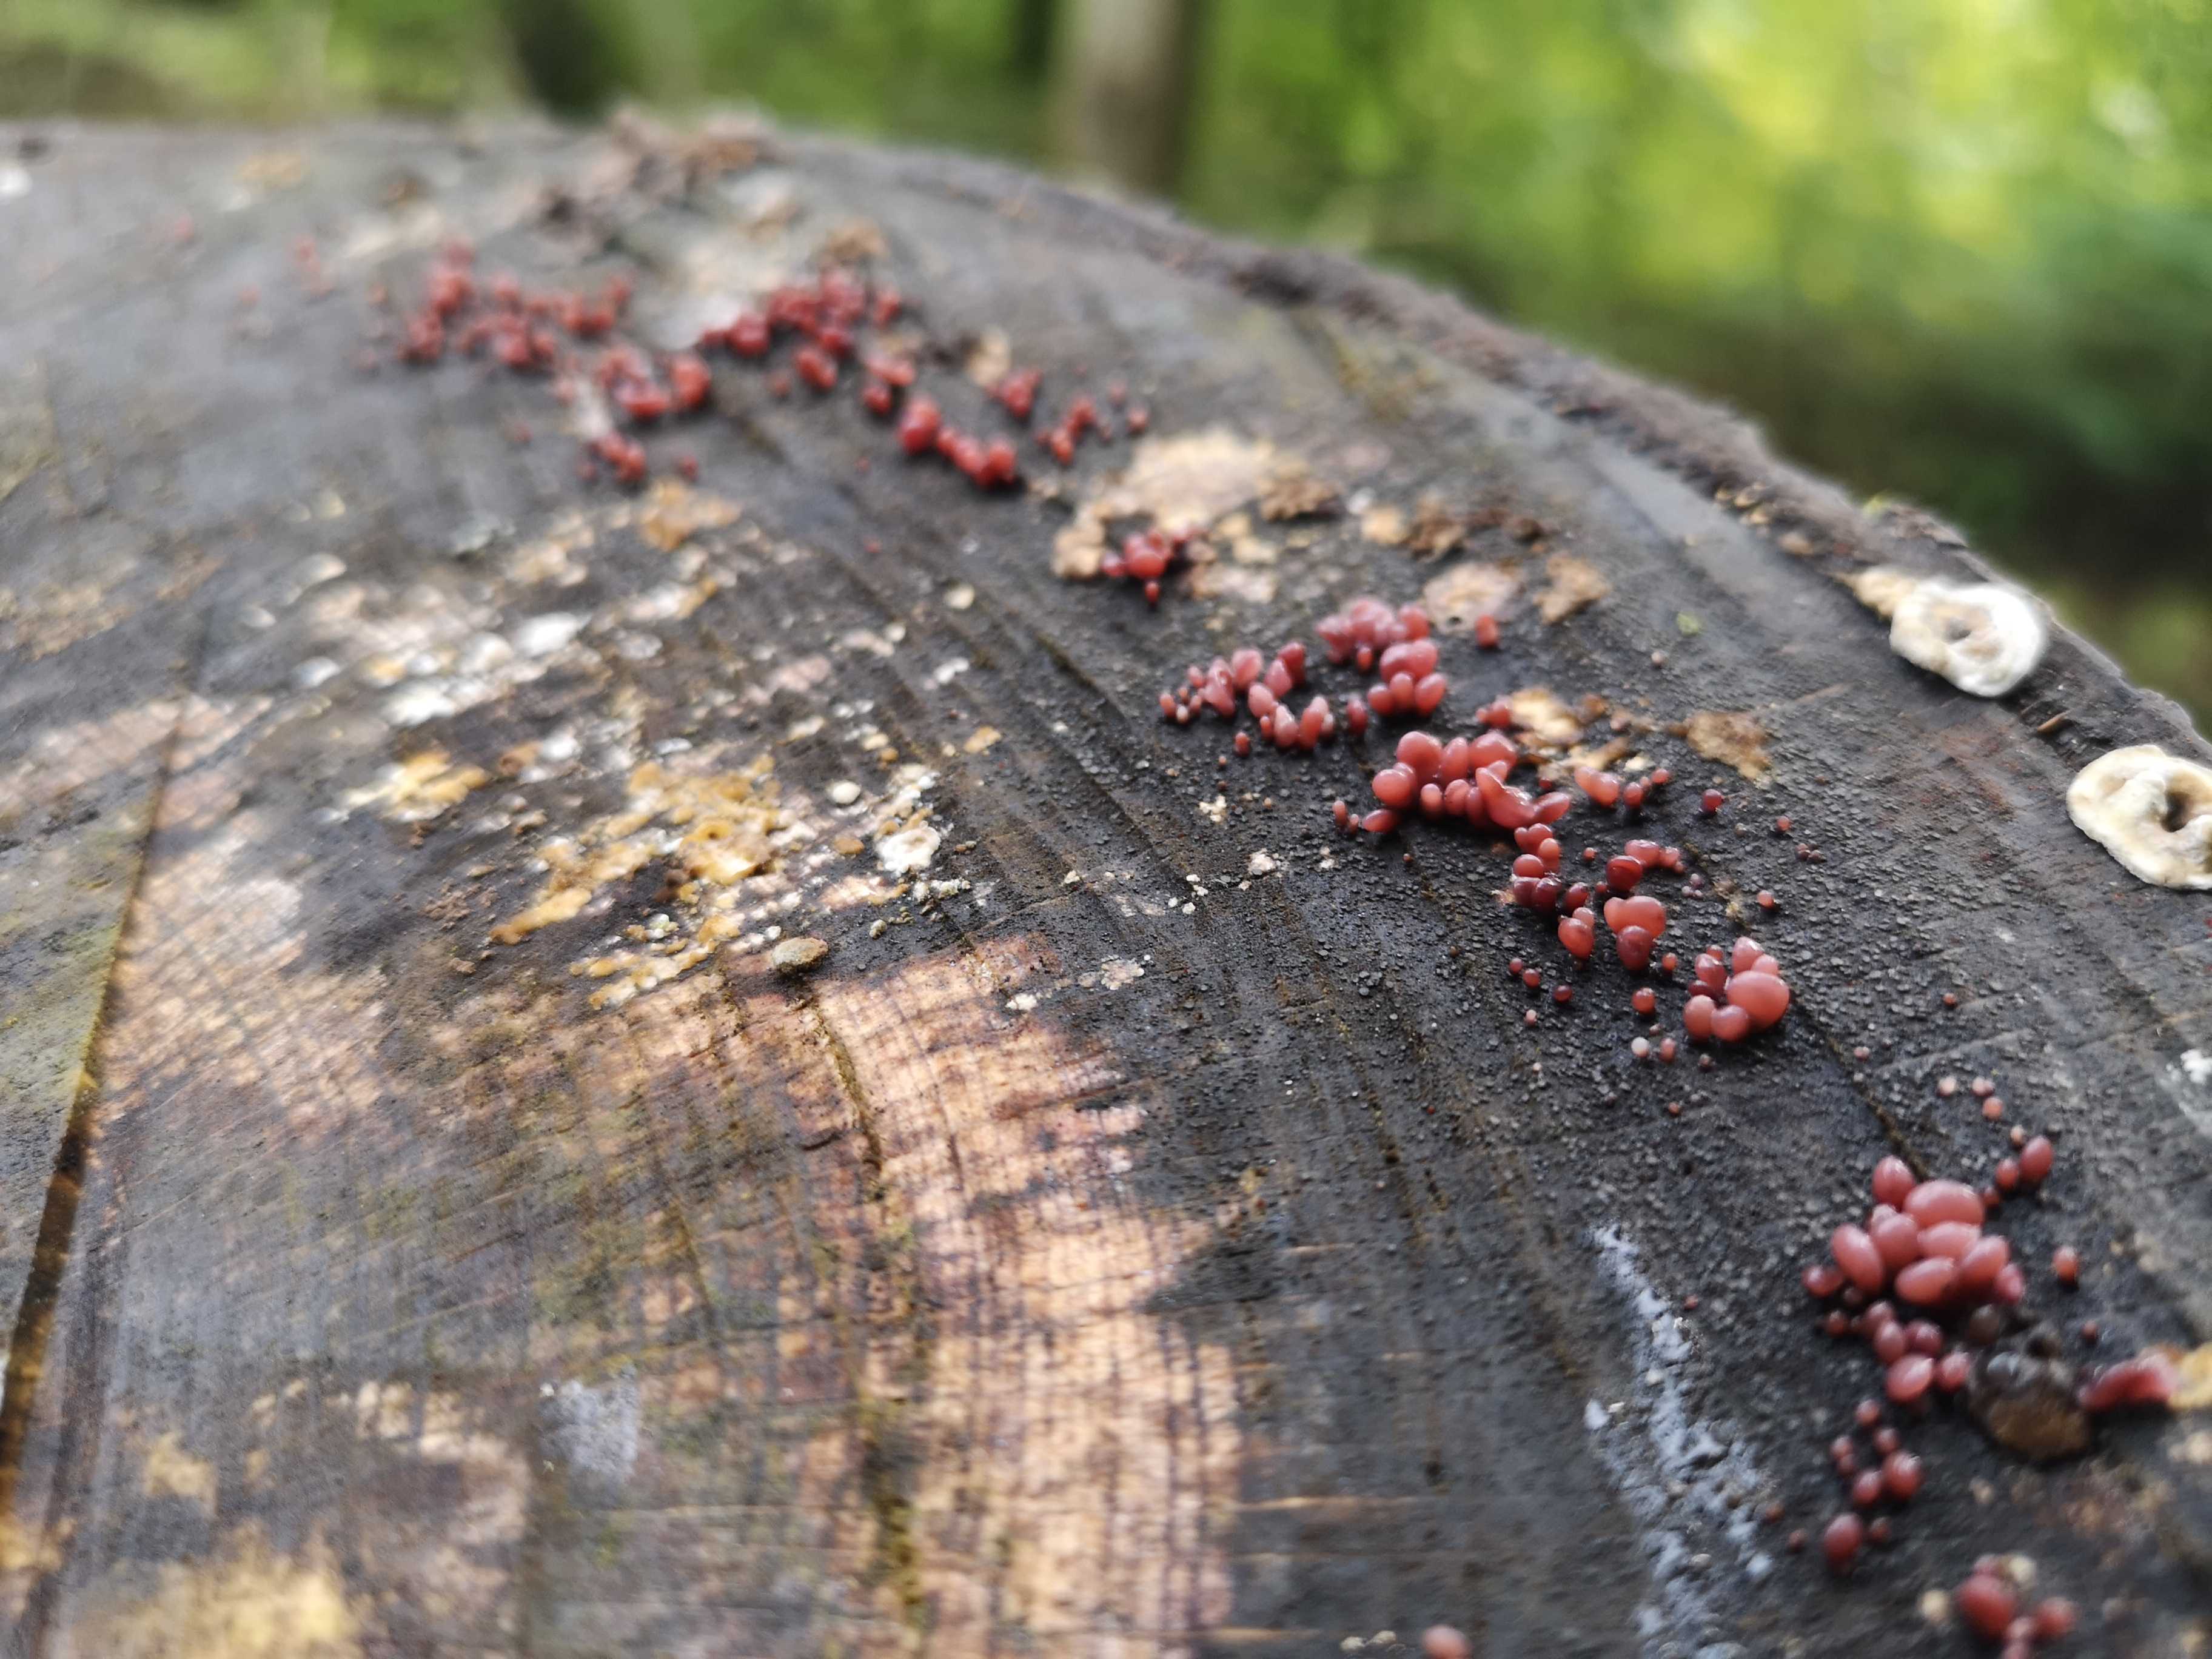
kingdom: Fungi
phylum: Ascomycota
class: Leotiomycetes
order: Helotiales
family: Gelatinodiscaceae
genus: Ascocoryne
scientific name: Ascocoryne sarcoides
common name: rødlilla sejskive
